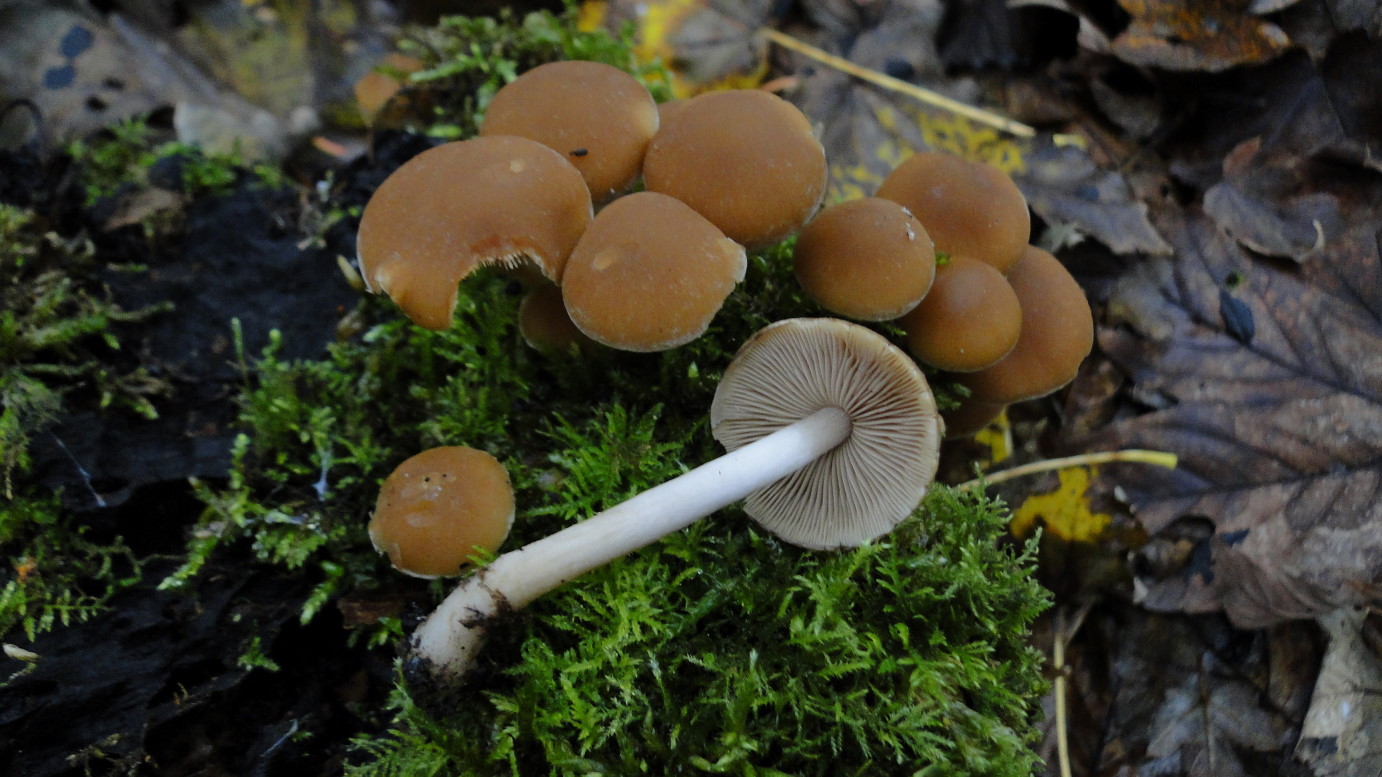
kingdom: Fungi
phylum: Basidiomycota
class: Agaricomycetes
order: Agaricales
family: Psathyrellaceae
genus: Psathyrella
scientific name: Psathyrella piluliformis
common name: lysstokket mørkhat
